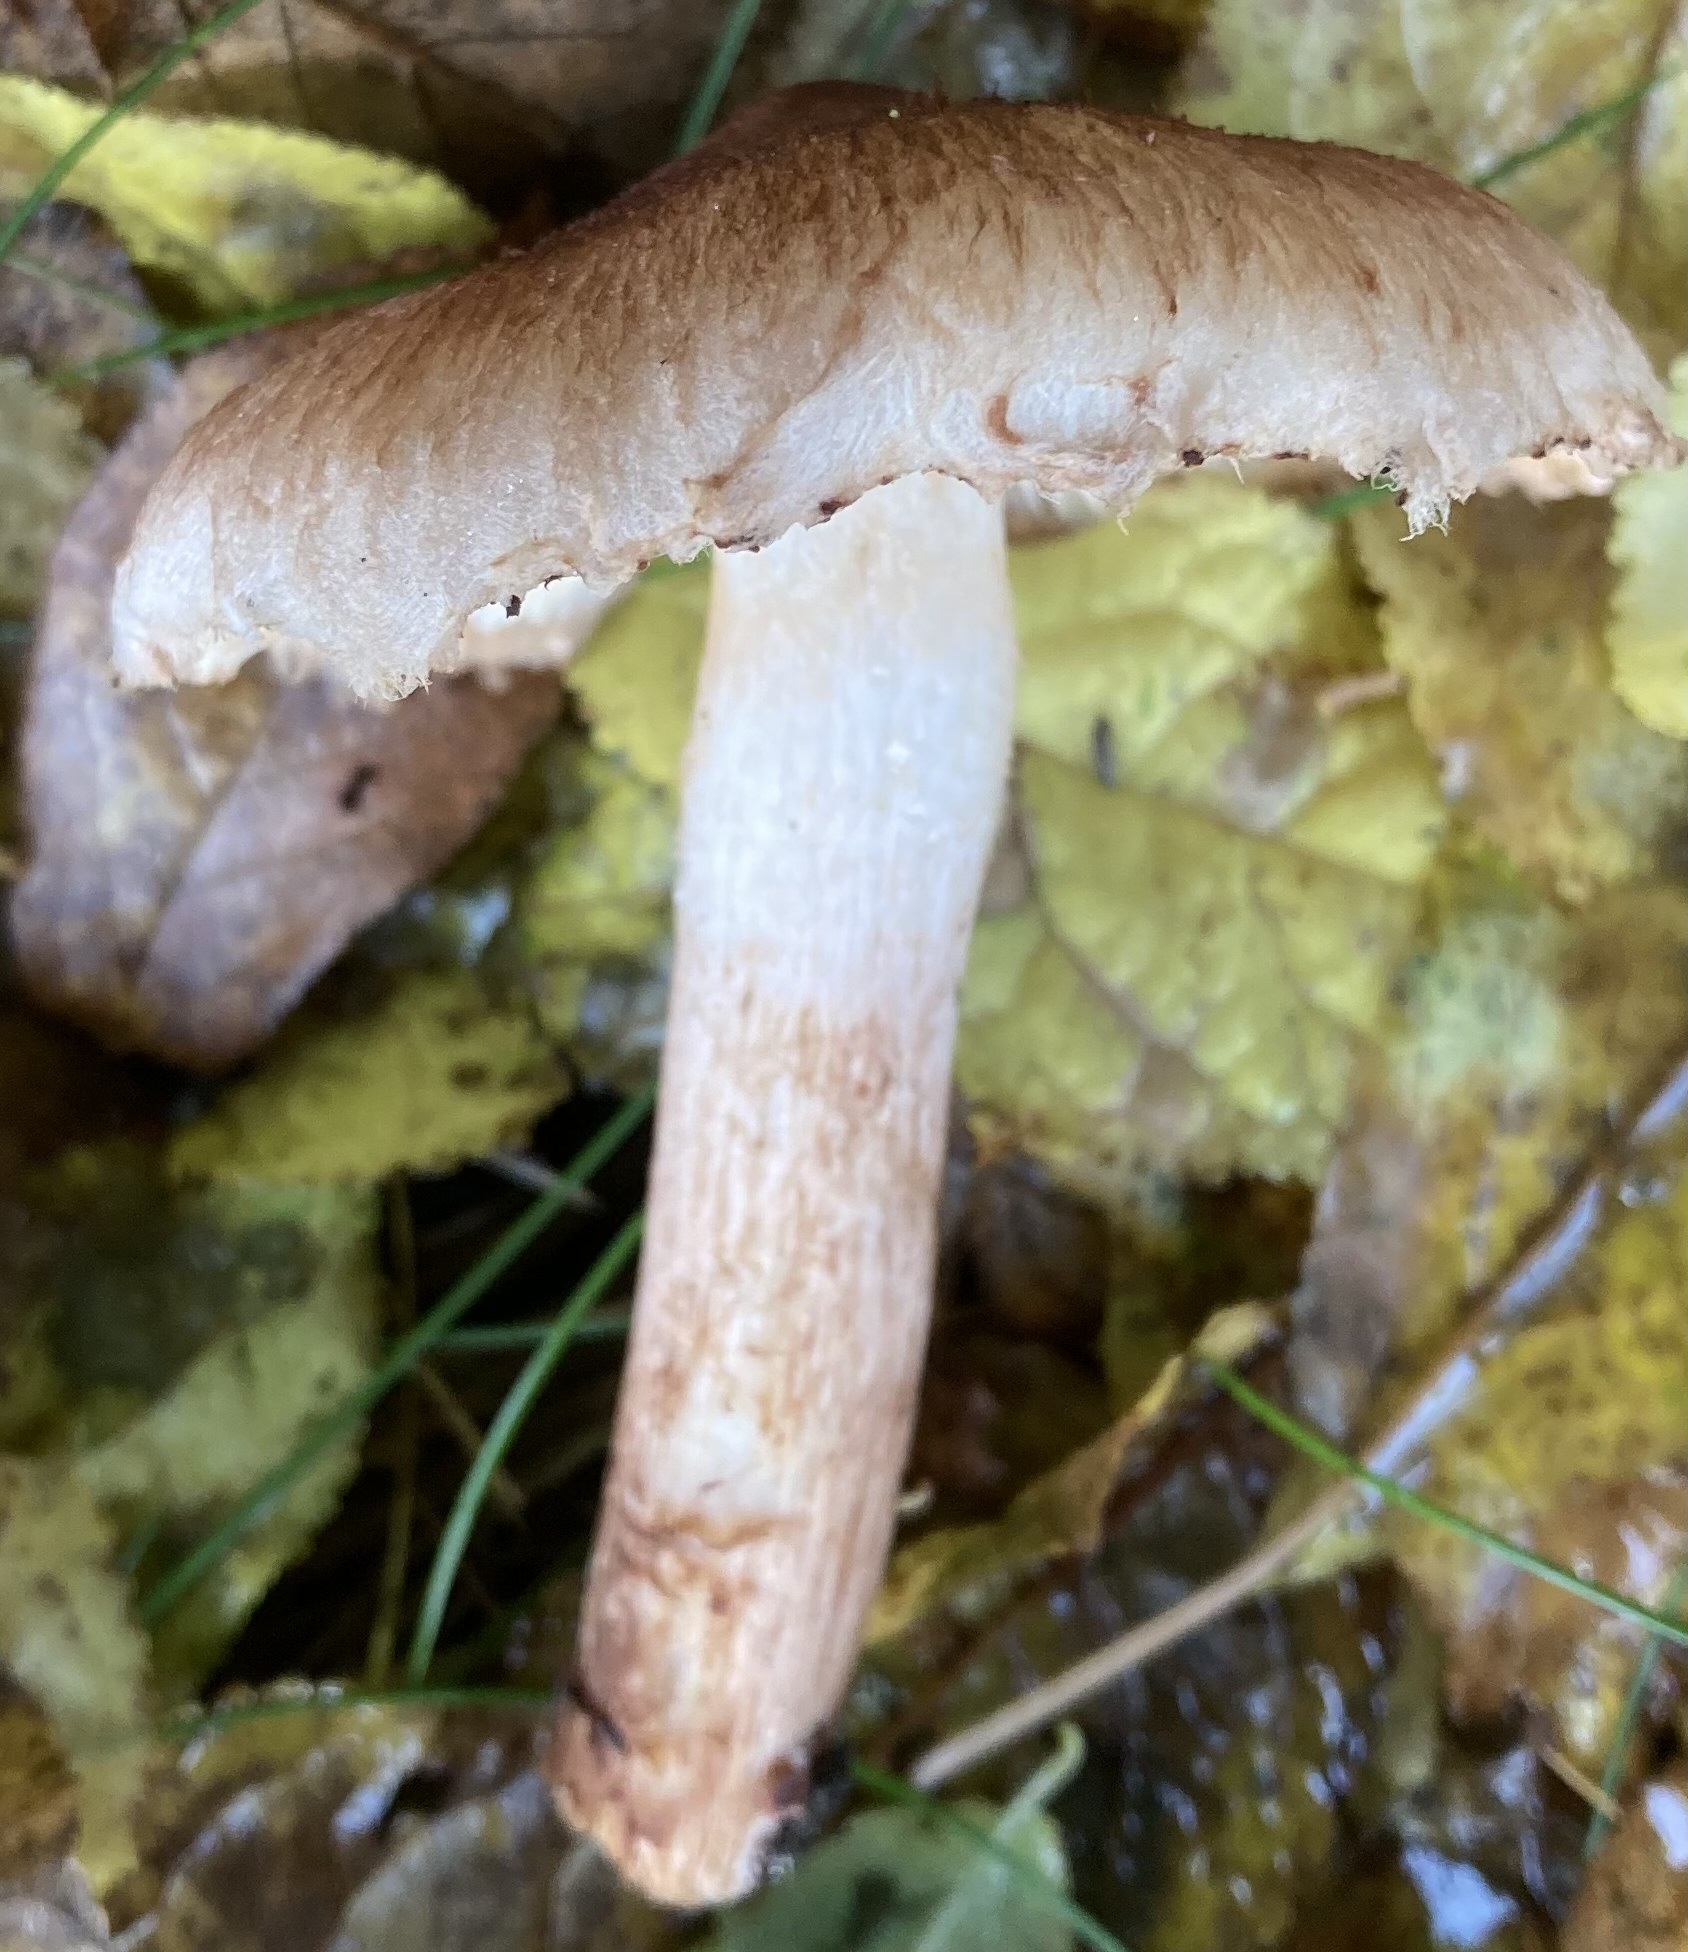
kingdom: Fungi
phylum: Basidiomycota
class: Agaricomycetes
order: Agaricales
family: Tricholomataceae
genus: Tricholoma
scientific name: Tricholoma vaccinum
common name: ko-ridderhat
